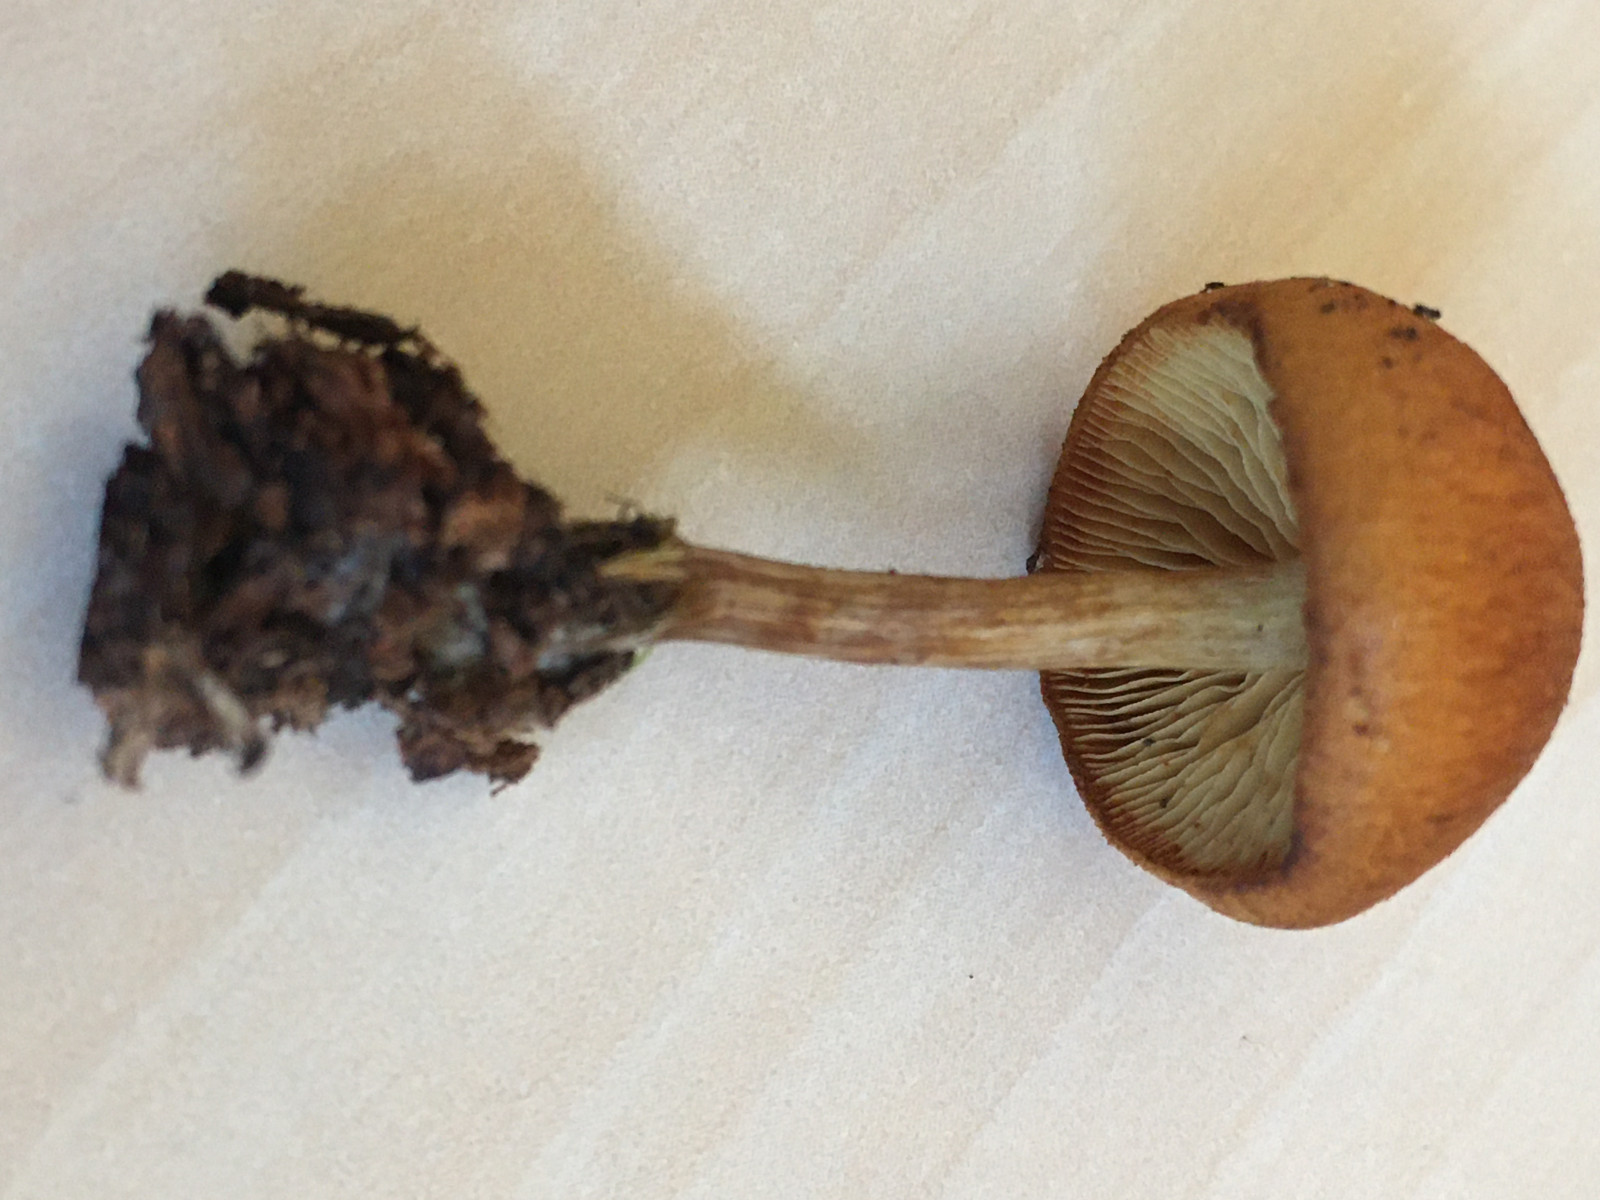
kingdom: Fungi
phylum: Basidiomycota
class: Agaricomycetes
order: Agaricales
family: Hymenogastraceae
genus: Gymnopilus
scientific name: Gymnopilus penetrans
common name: plettet flammehat
